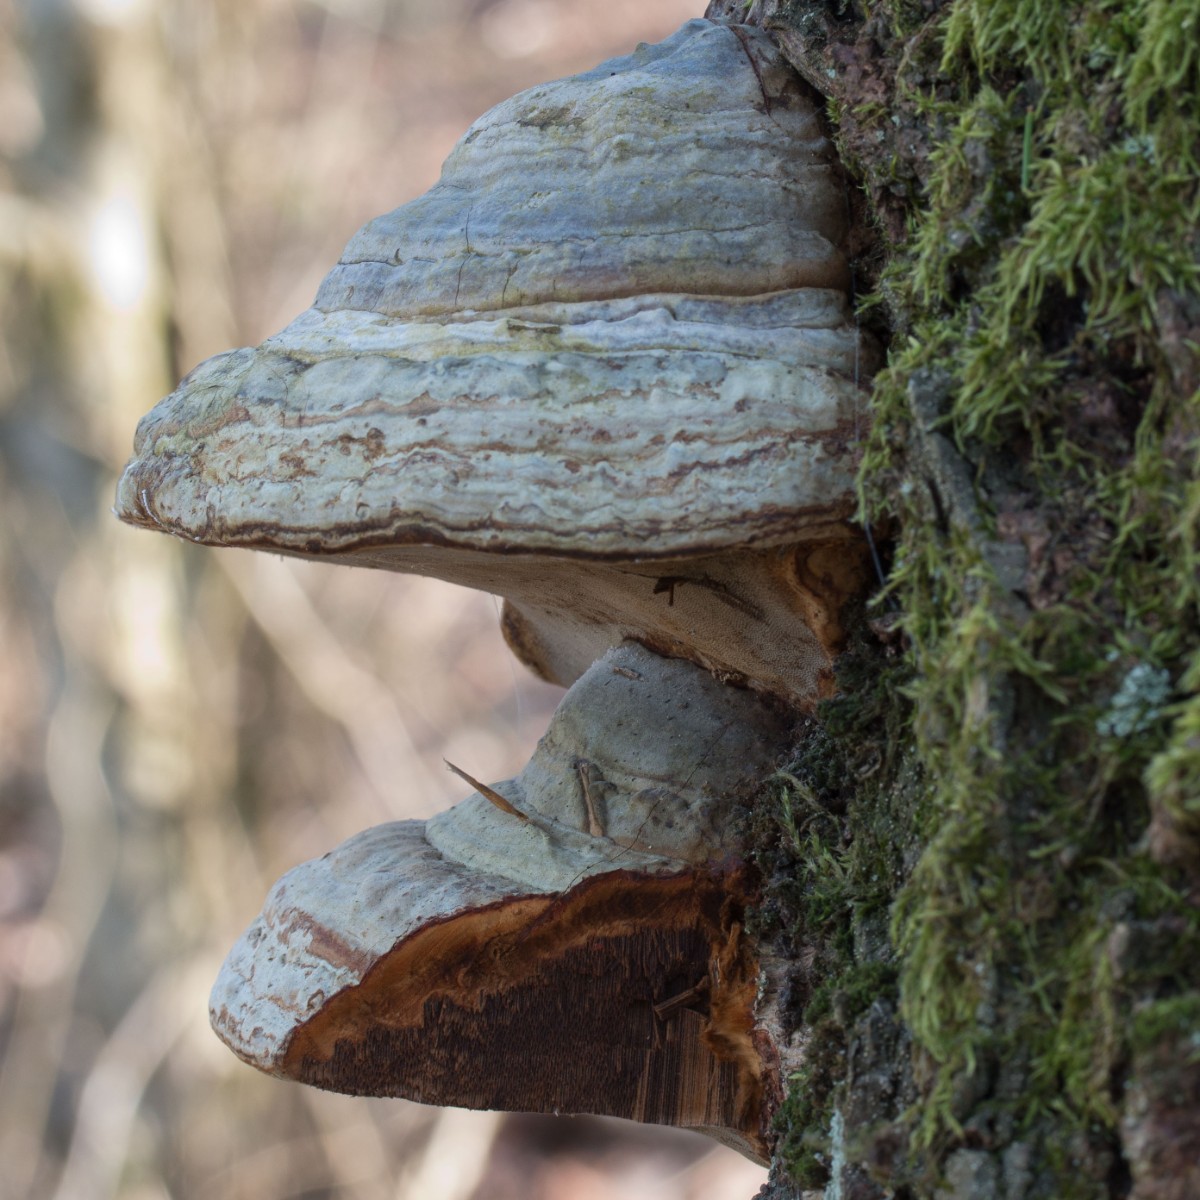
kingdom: Fungi
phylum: Basidiomycota
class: Agaricomycetes
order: Polyporales
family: Polyporaceae
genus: Fomes
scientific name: Fomes fomentarius
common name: tøndersvamp
